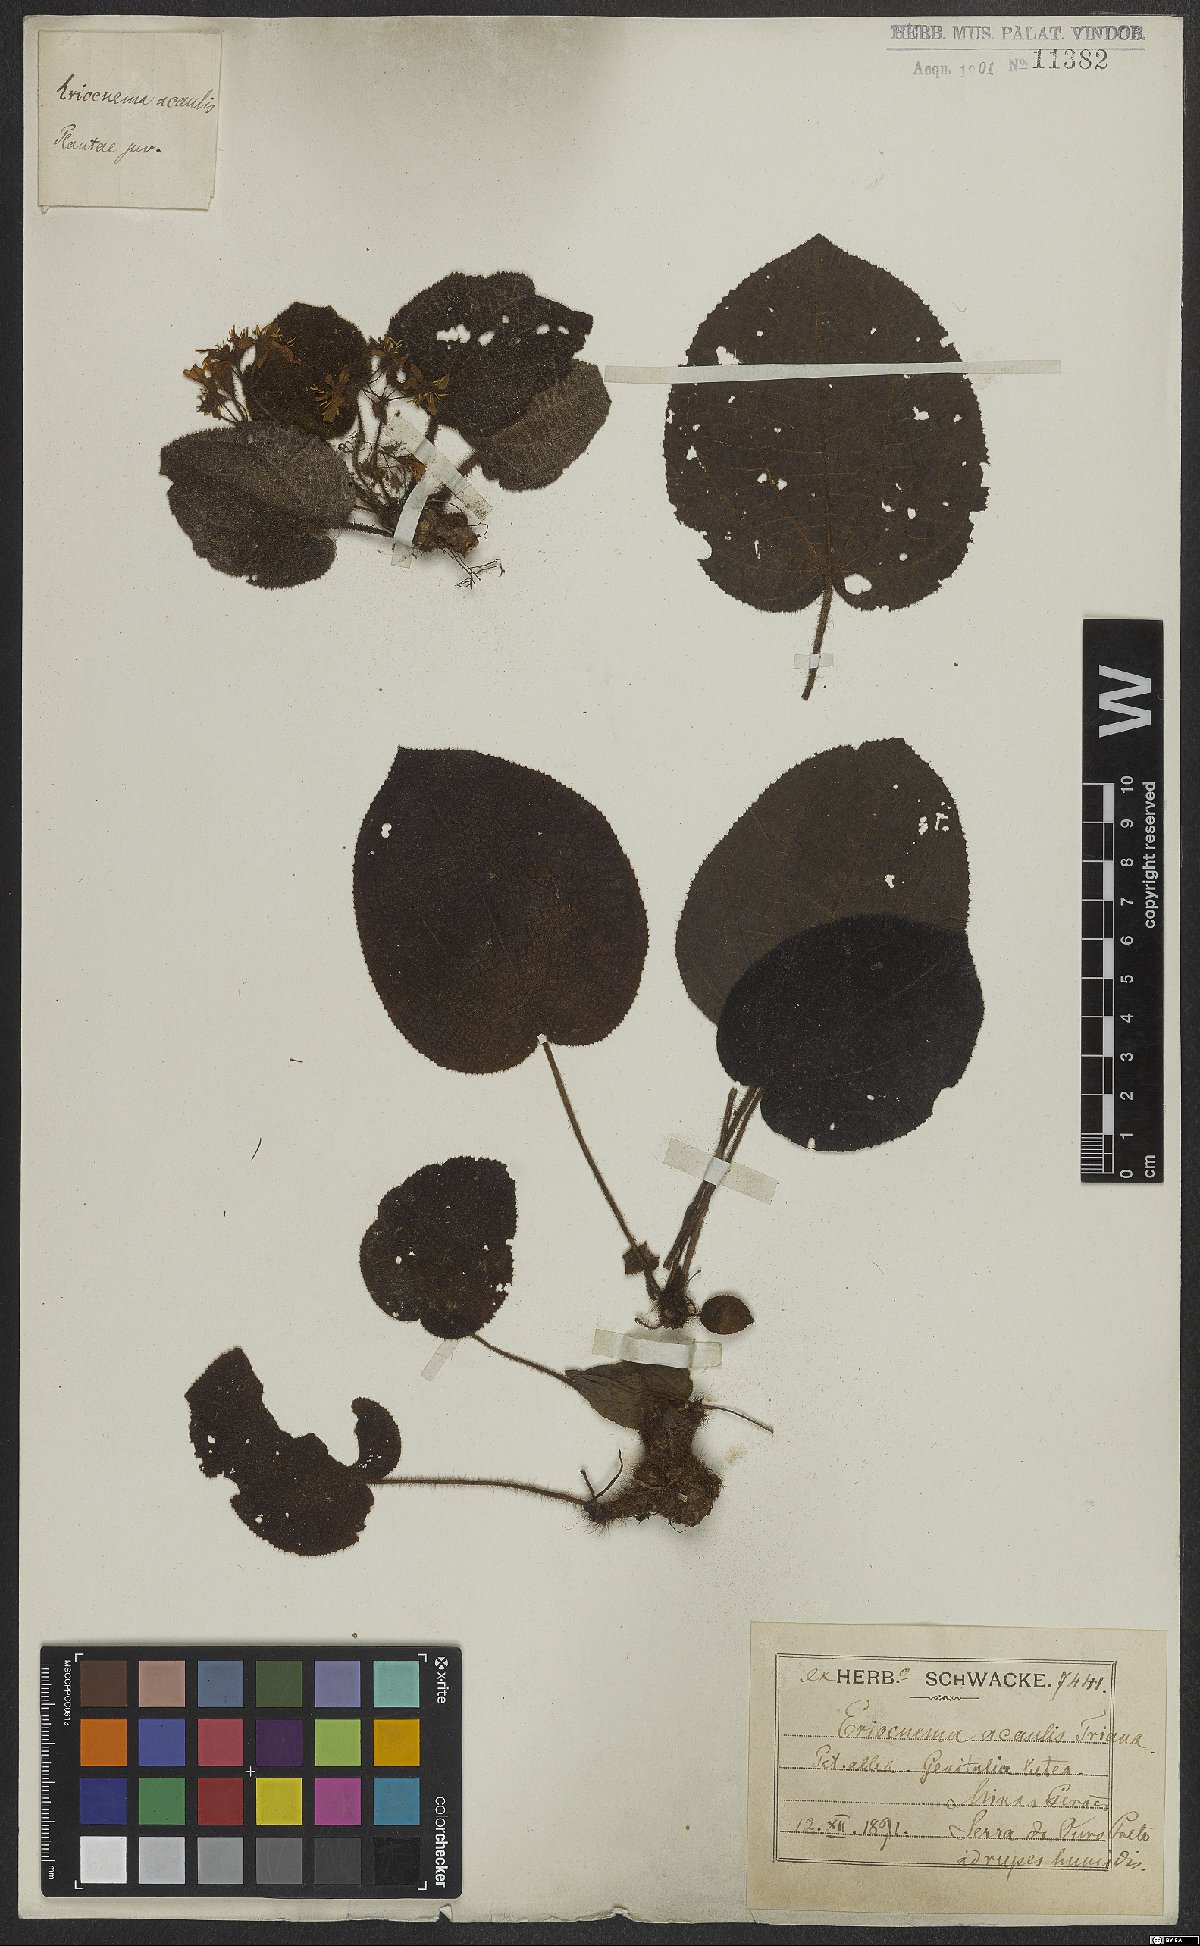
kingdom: Plantae
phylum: Tracheophyta
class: Magnoliopsida
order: Myrtales
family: Melastomataceae
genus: Eriocnema
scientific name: Eriocnema acaulis
